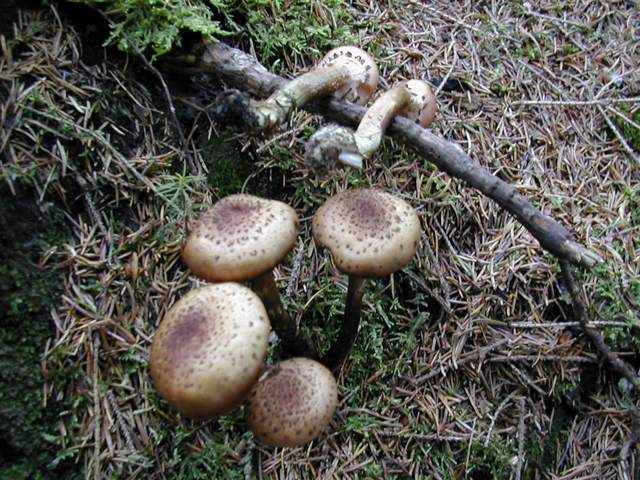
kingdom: Fungi
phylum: Basidiomycota
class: Agaricomycetes
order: Agaricales
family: Physalacriaceae
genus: Armillaria
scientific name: Armillaria ostoyae
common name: mørk honningsvamp
